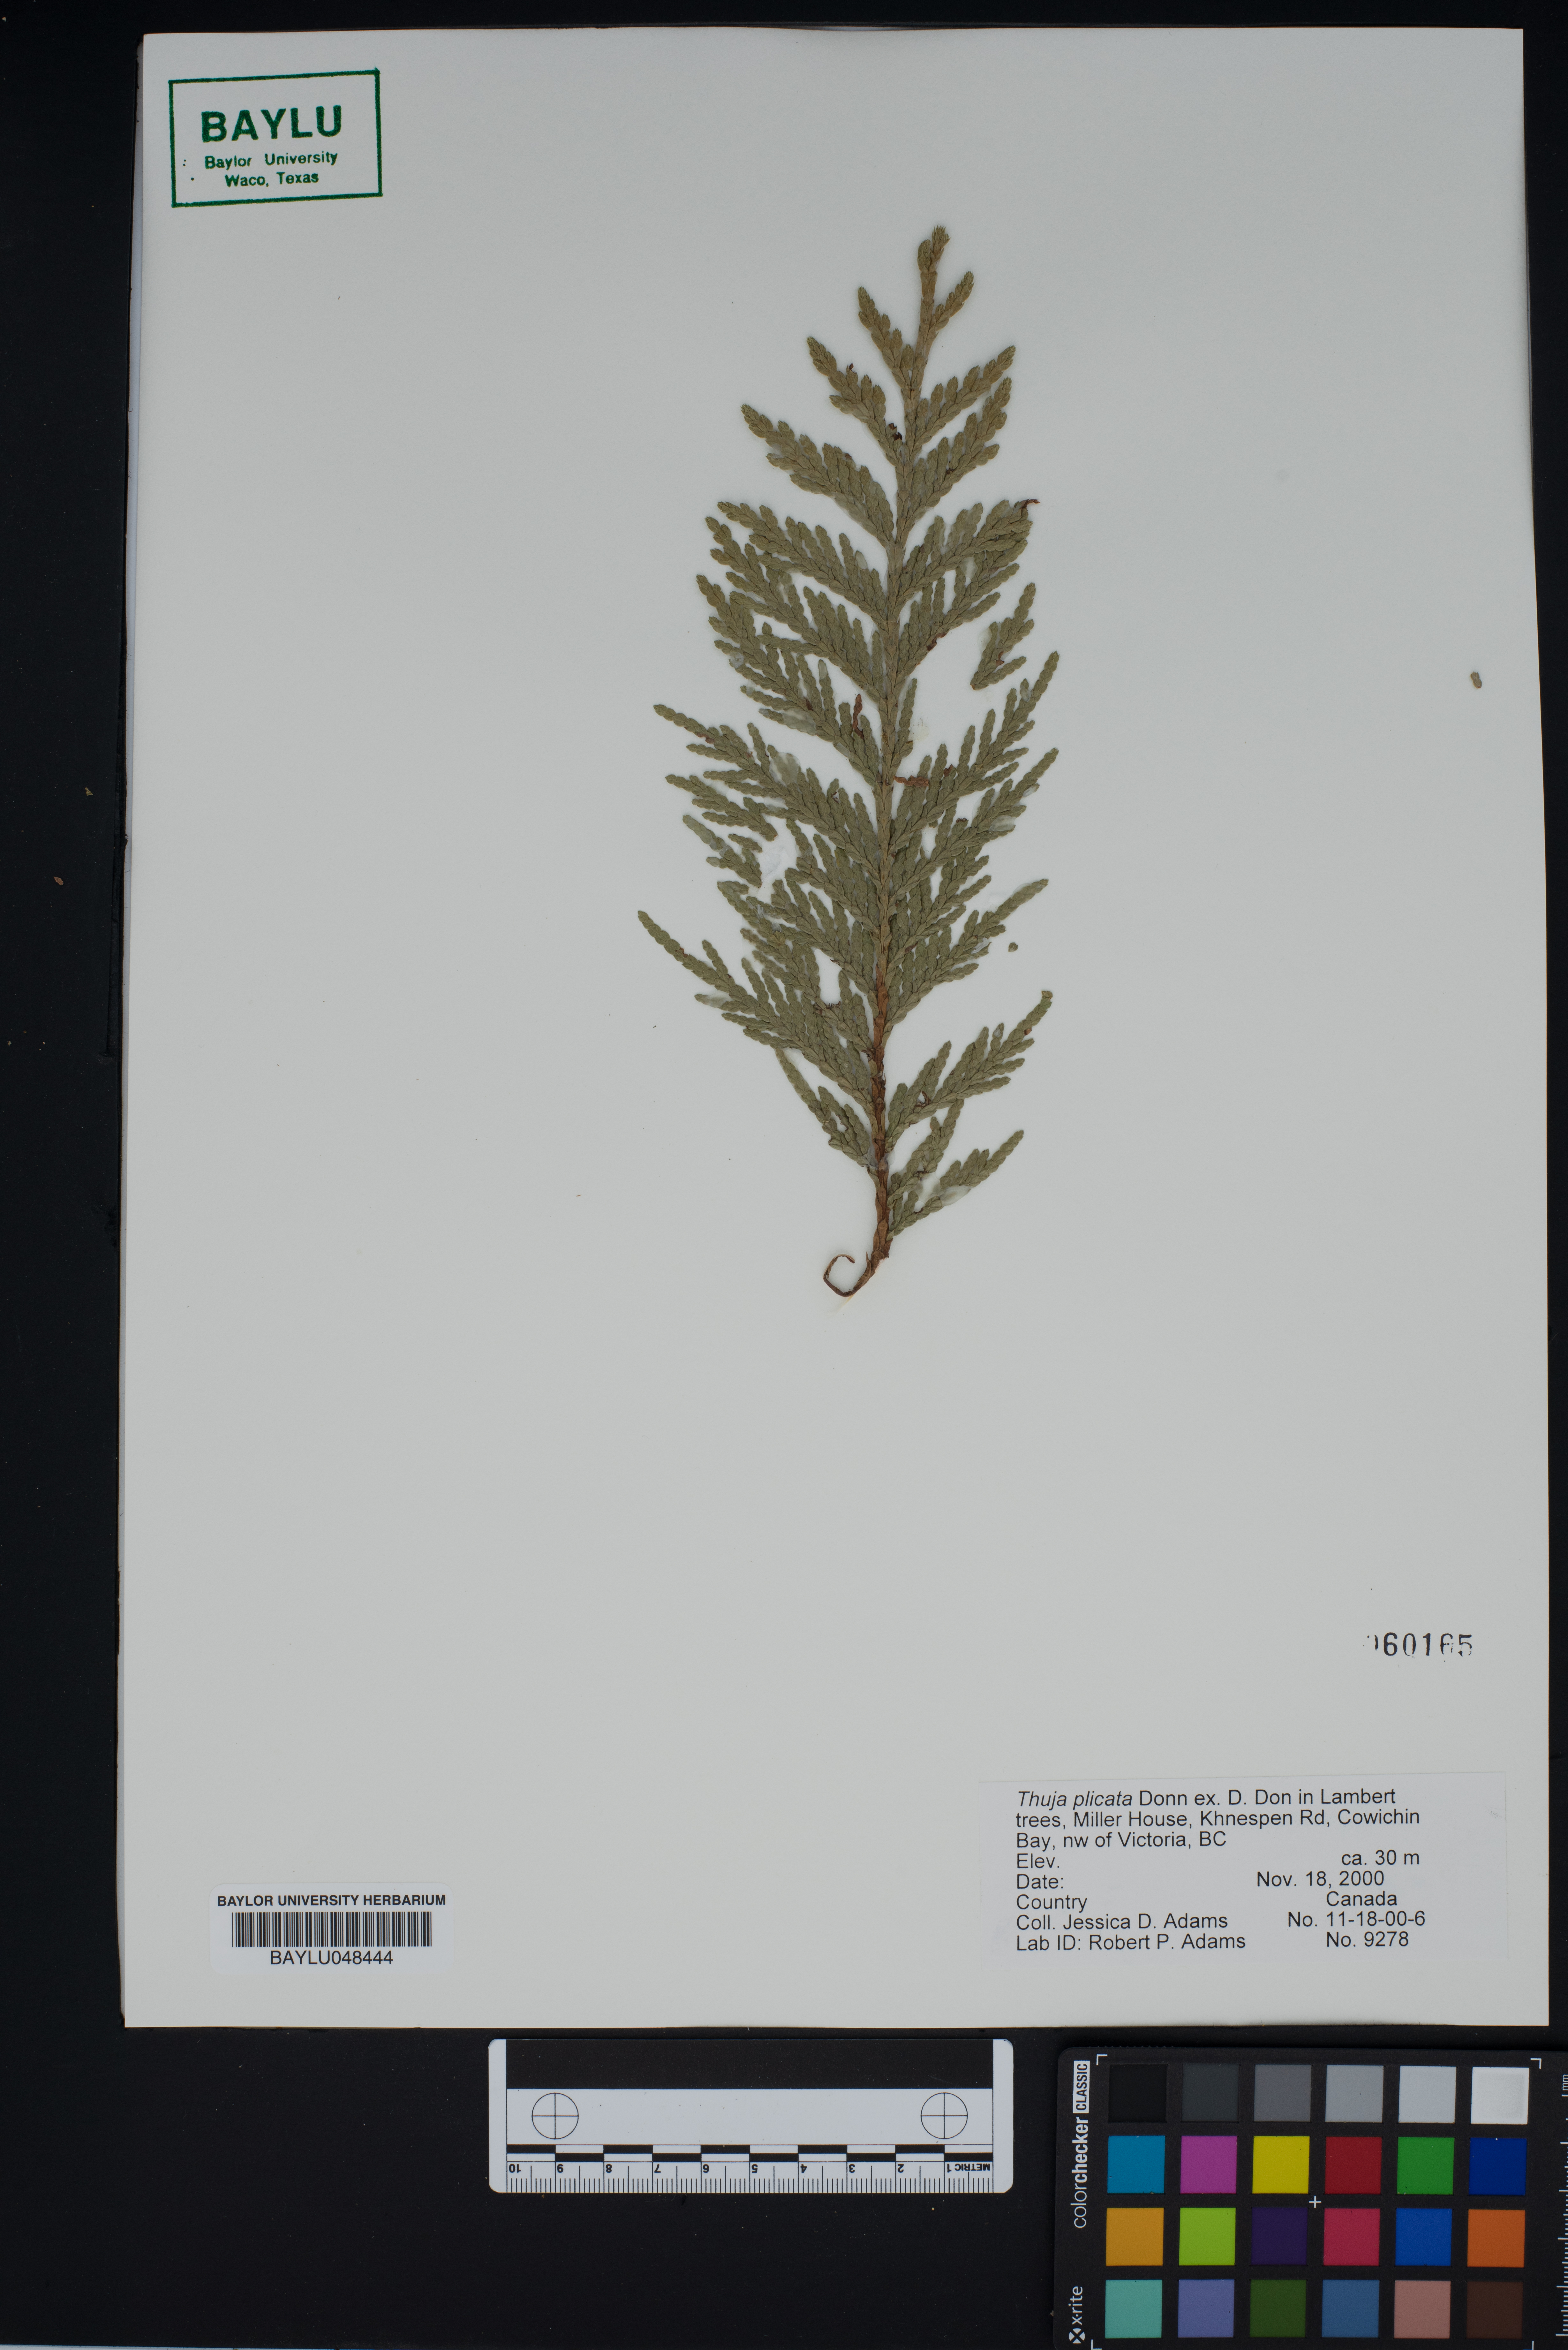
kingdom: Plantae
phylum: Tracheophyta
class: Pinopsida
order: Pinales
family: Cupressaceae
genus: Thuja
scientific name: Thuja plicata
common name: Western red-cedar
